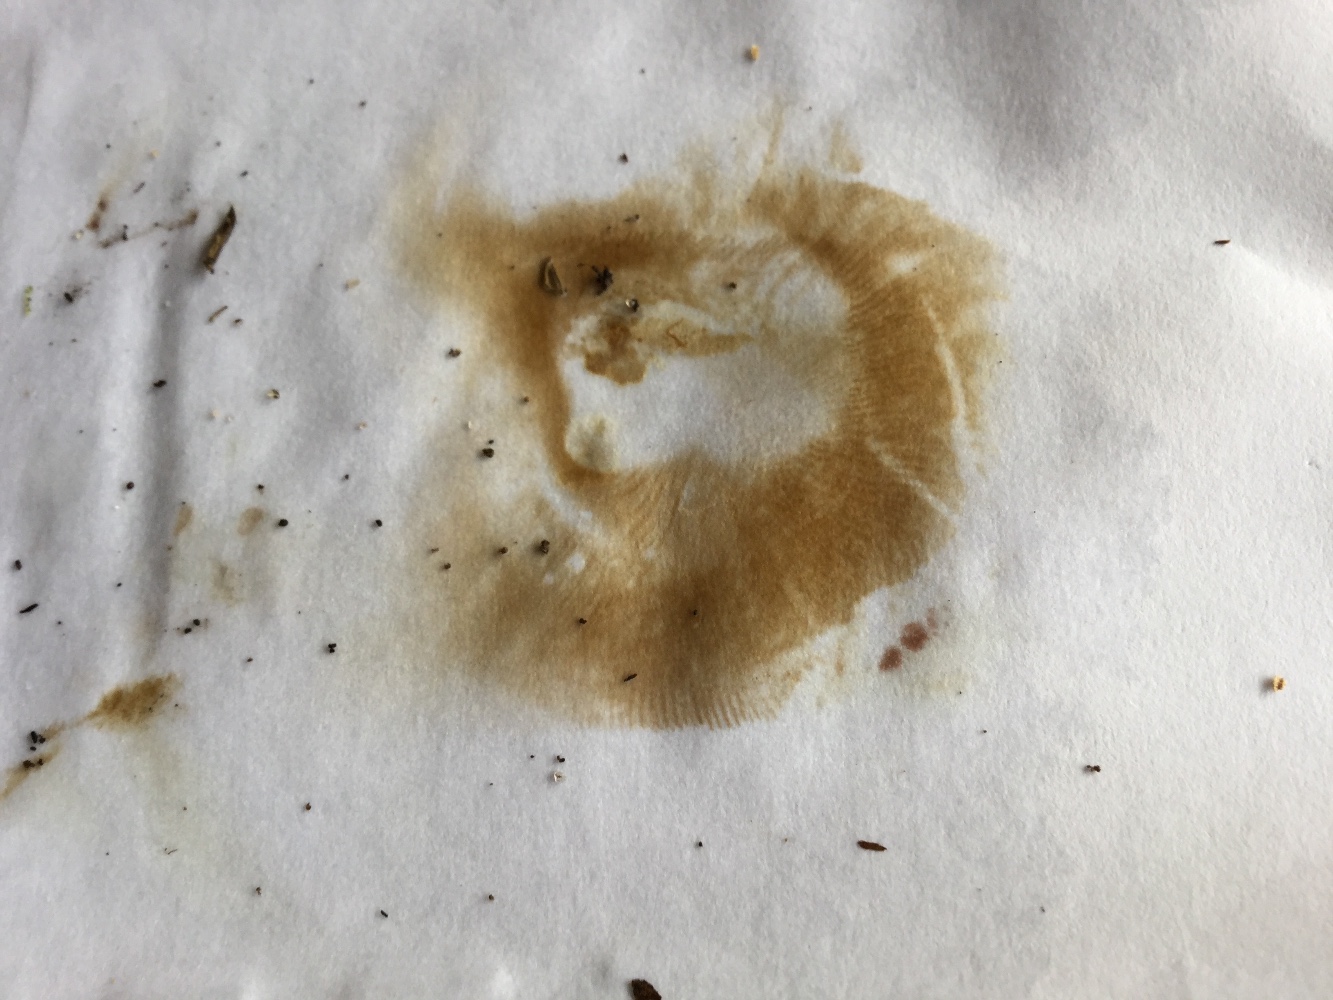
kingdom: Fungi
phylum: Basidiomycota
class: Agaricomycetes
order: Boletales
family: Paxillaceae
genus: Paxillus
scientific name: Paxillus ammoniavirescens
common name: olivensporet netbladhat
